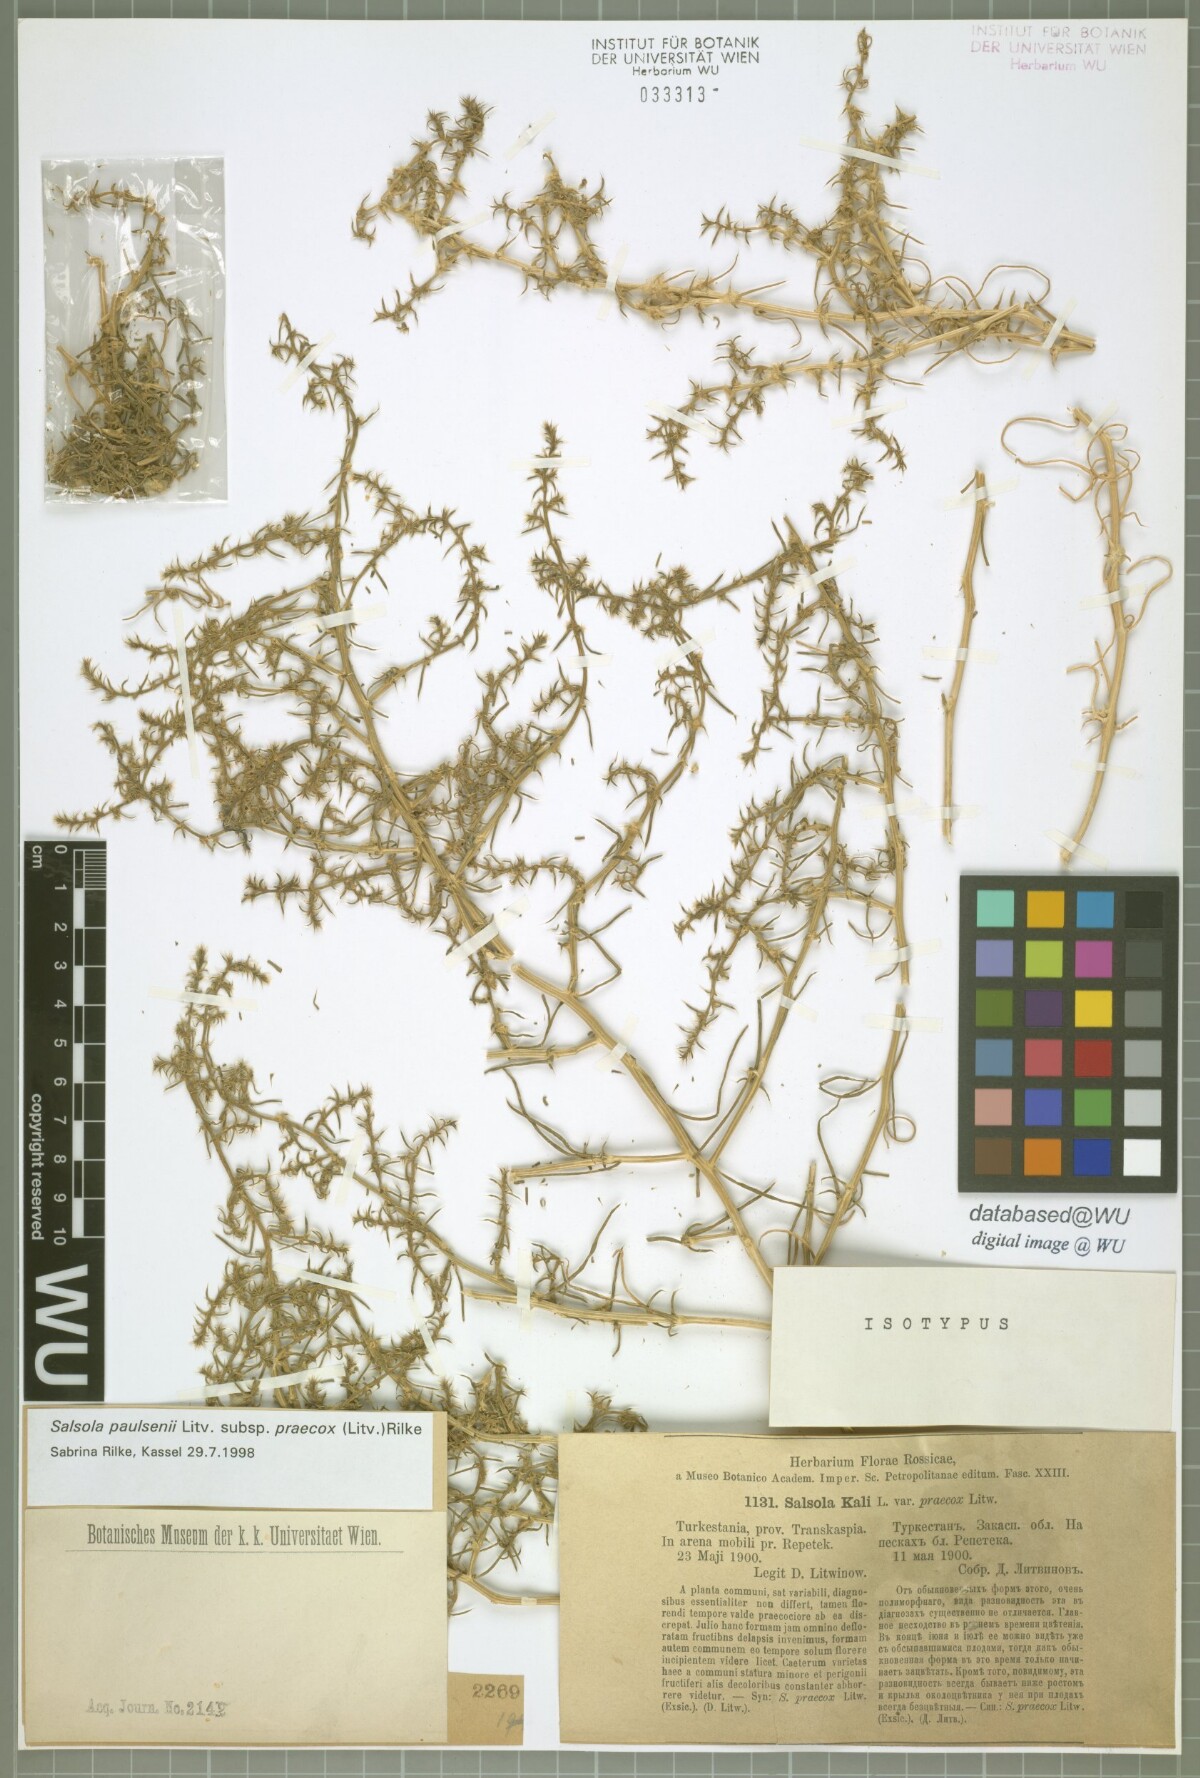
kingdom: Plantae
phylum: Tracheophyta
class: Magnoliopsida
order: Caryophyllales
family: Amaranthaceae
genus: Salsola
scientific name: Salsola praecox
